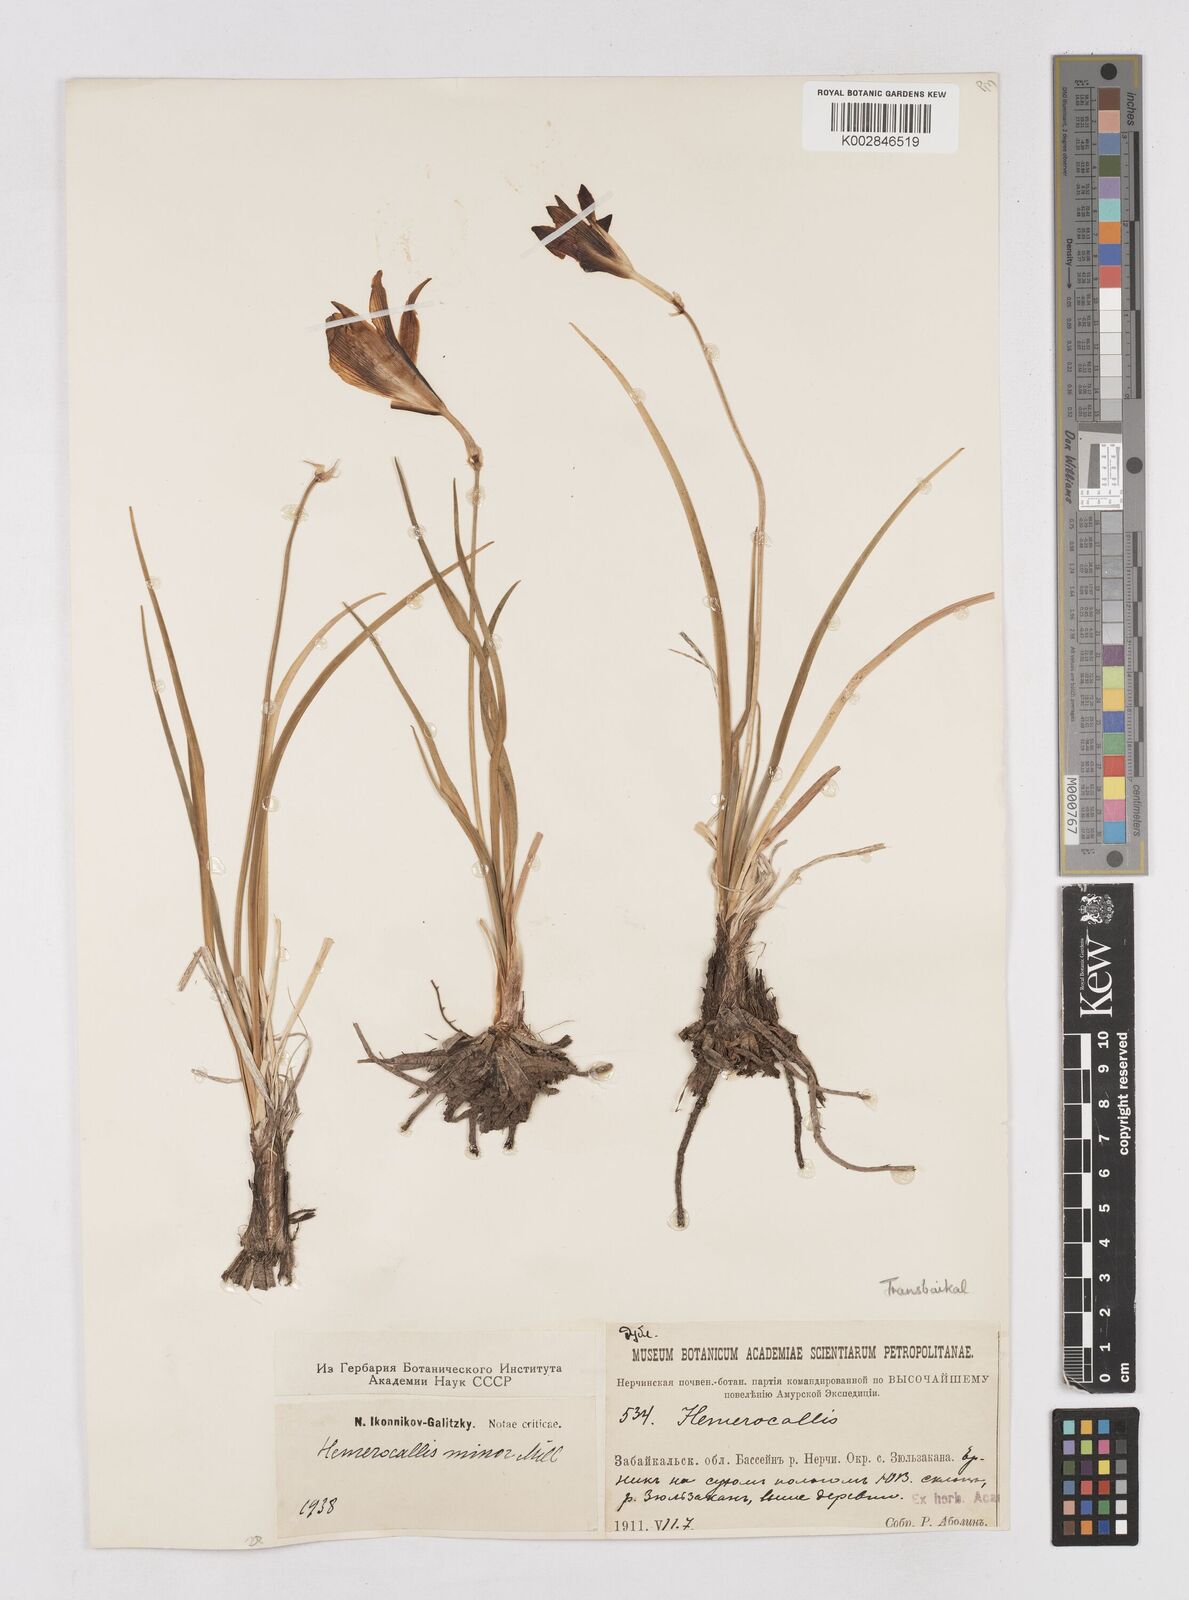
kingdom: Plantae
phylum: Tracheophyta
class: Liliopsida
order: Asparagales
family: Asphodelaceae
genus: Hemerocallis
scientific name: Hemerocallis minor
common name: Small daylily
